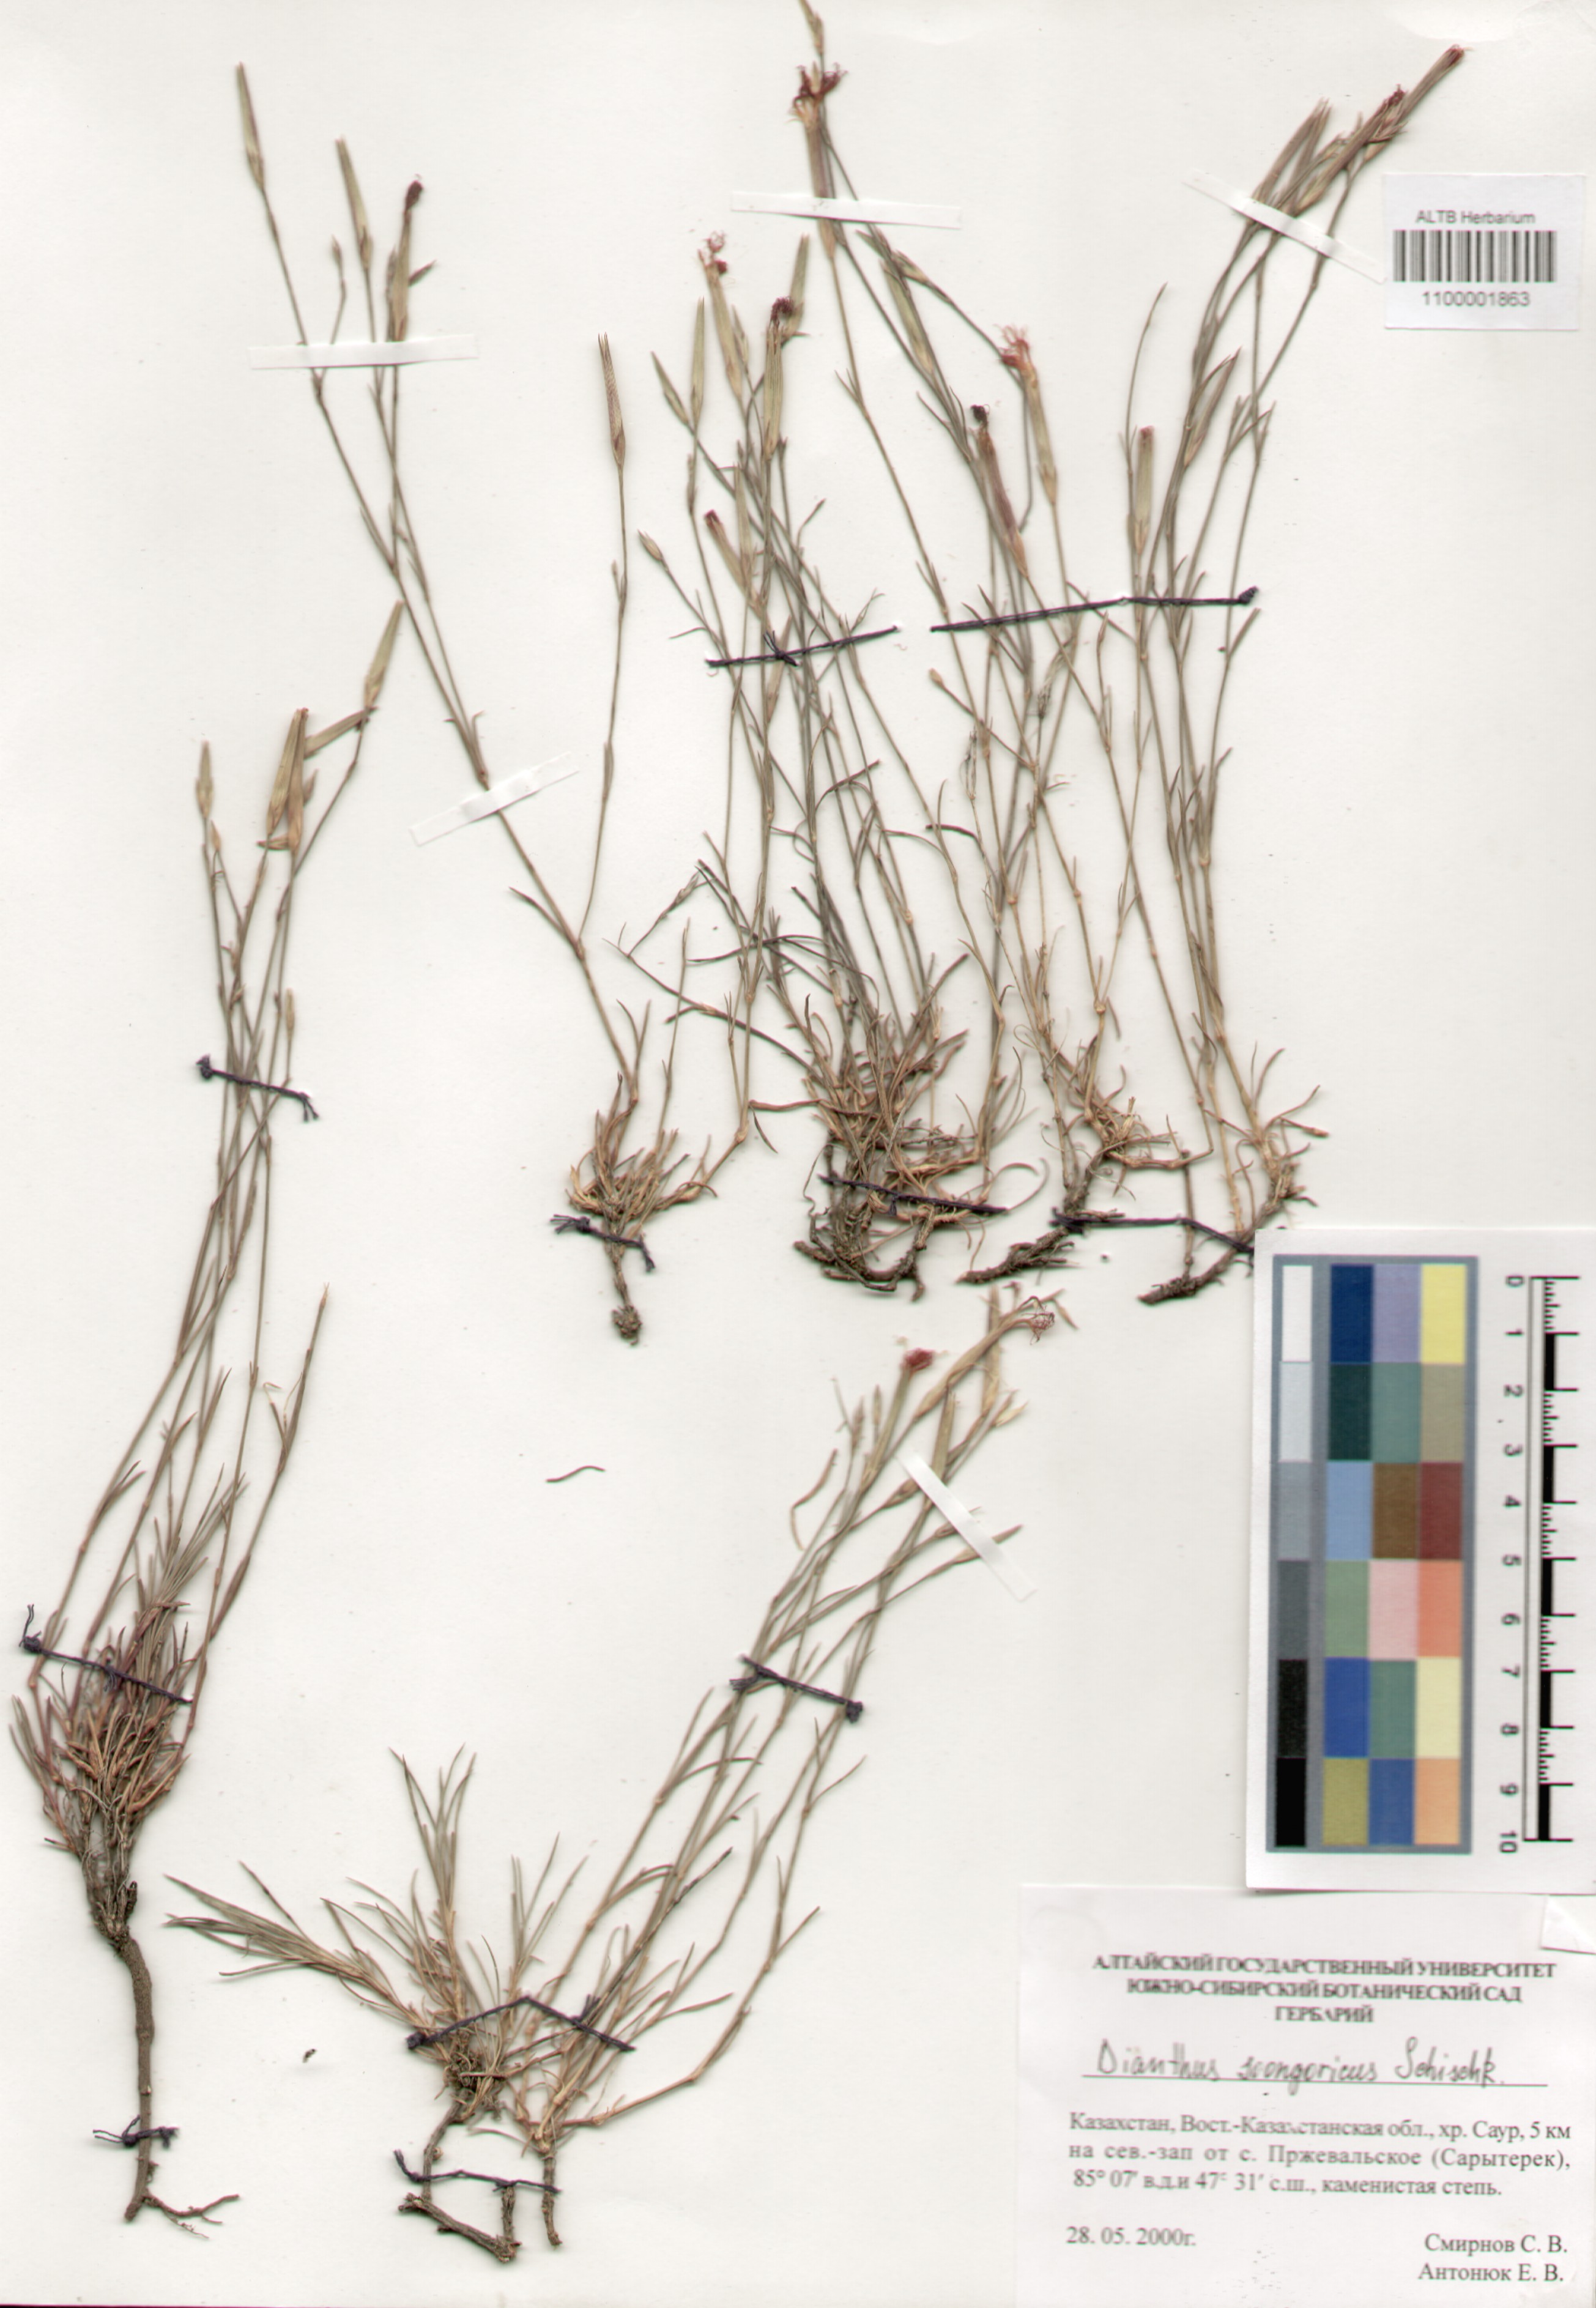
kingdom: Plantae
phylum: Tracheophyta
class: Magnoliopsida
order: Caryophyllales
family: Caryophyllaceae
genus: Dianthus
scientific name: Dianthus crinitus
